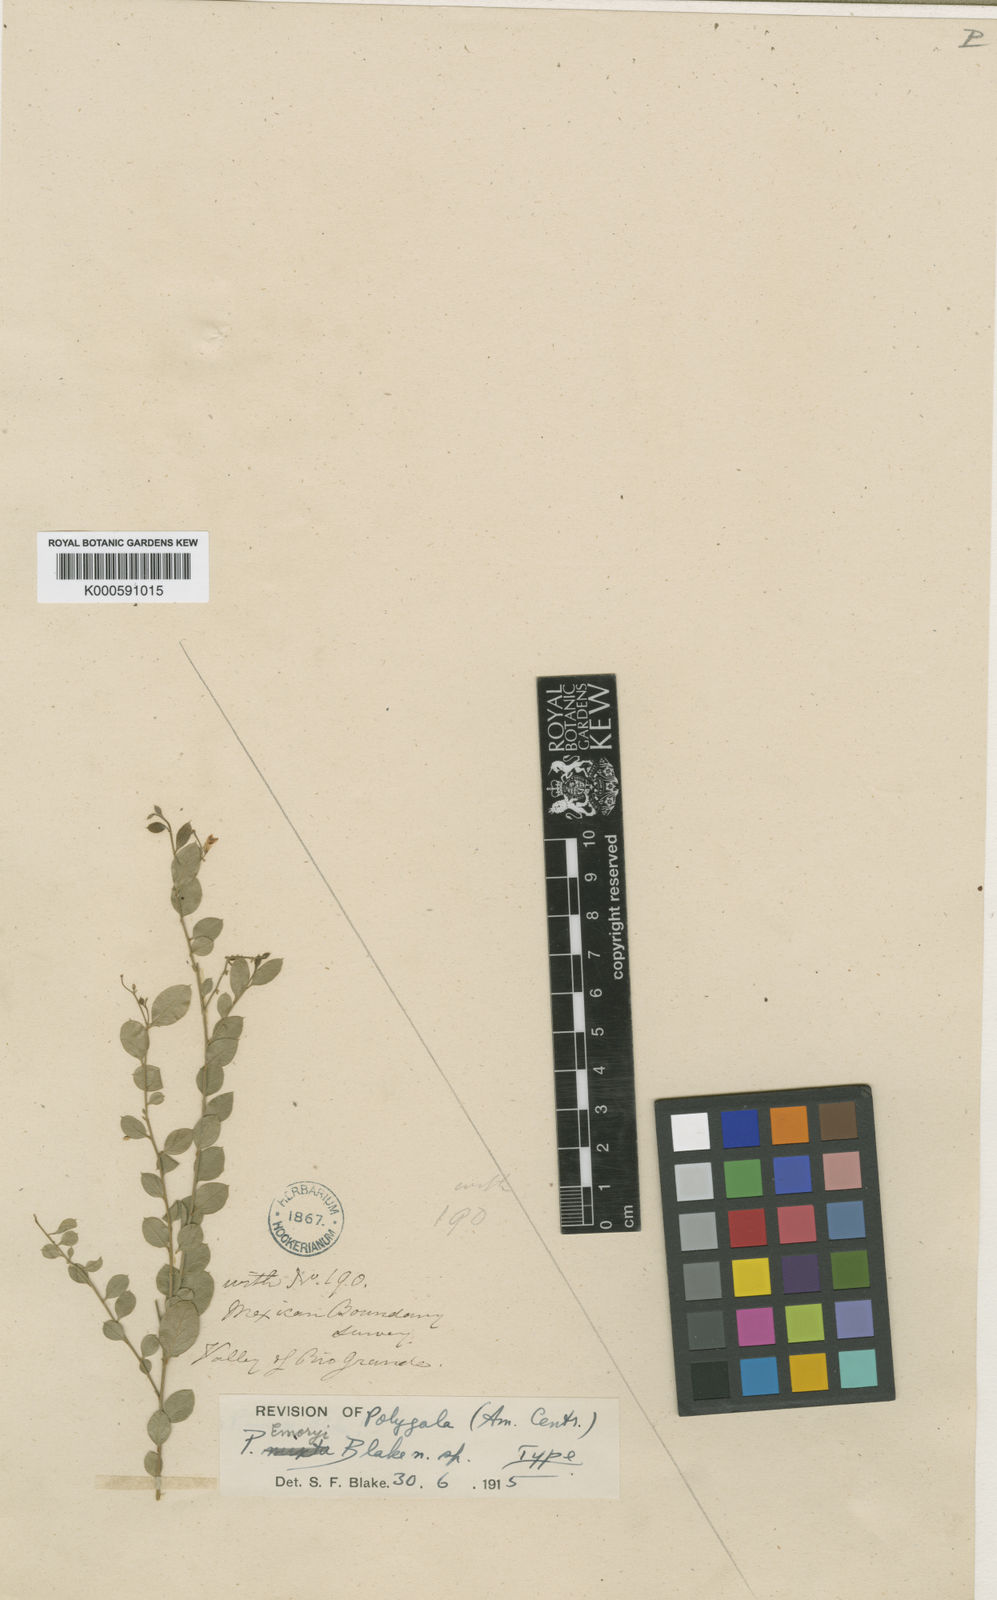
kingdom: Plantae
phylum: Tracheophyta
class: Magnoliopsida
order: Fabales
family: Polygalaceae
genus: Rhinotropis
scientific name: Rhinotropis lindheimeri
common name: Shrubby milkwort
